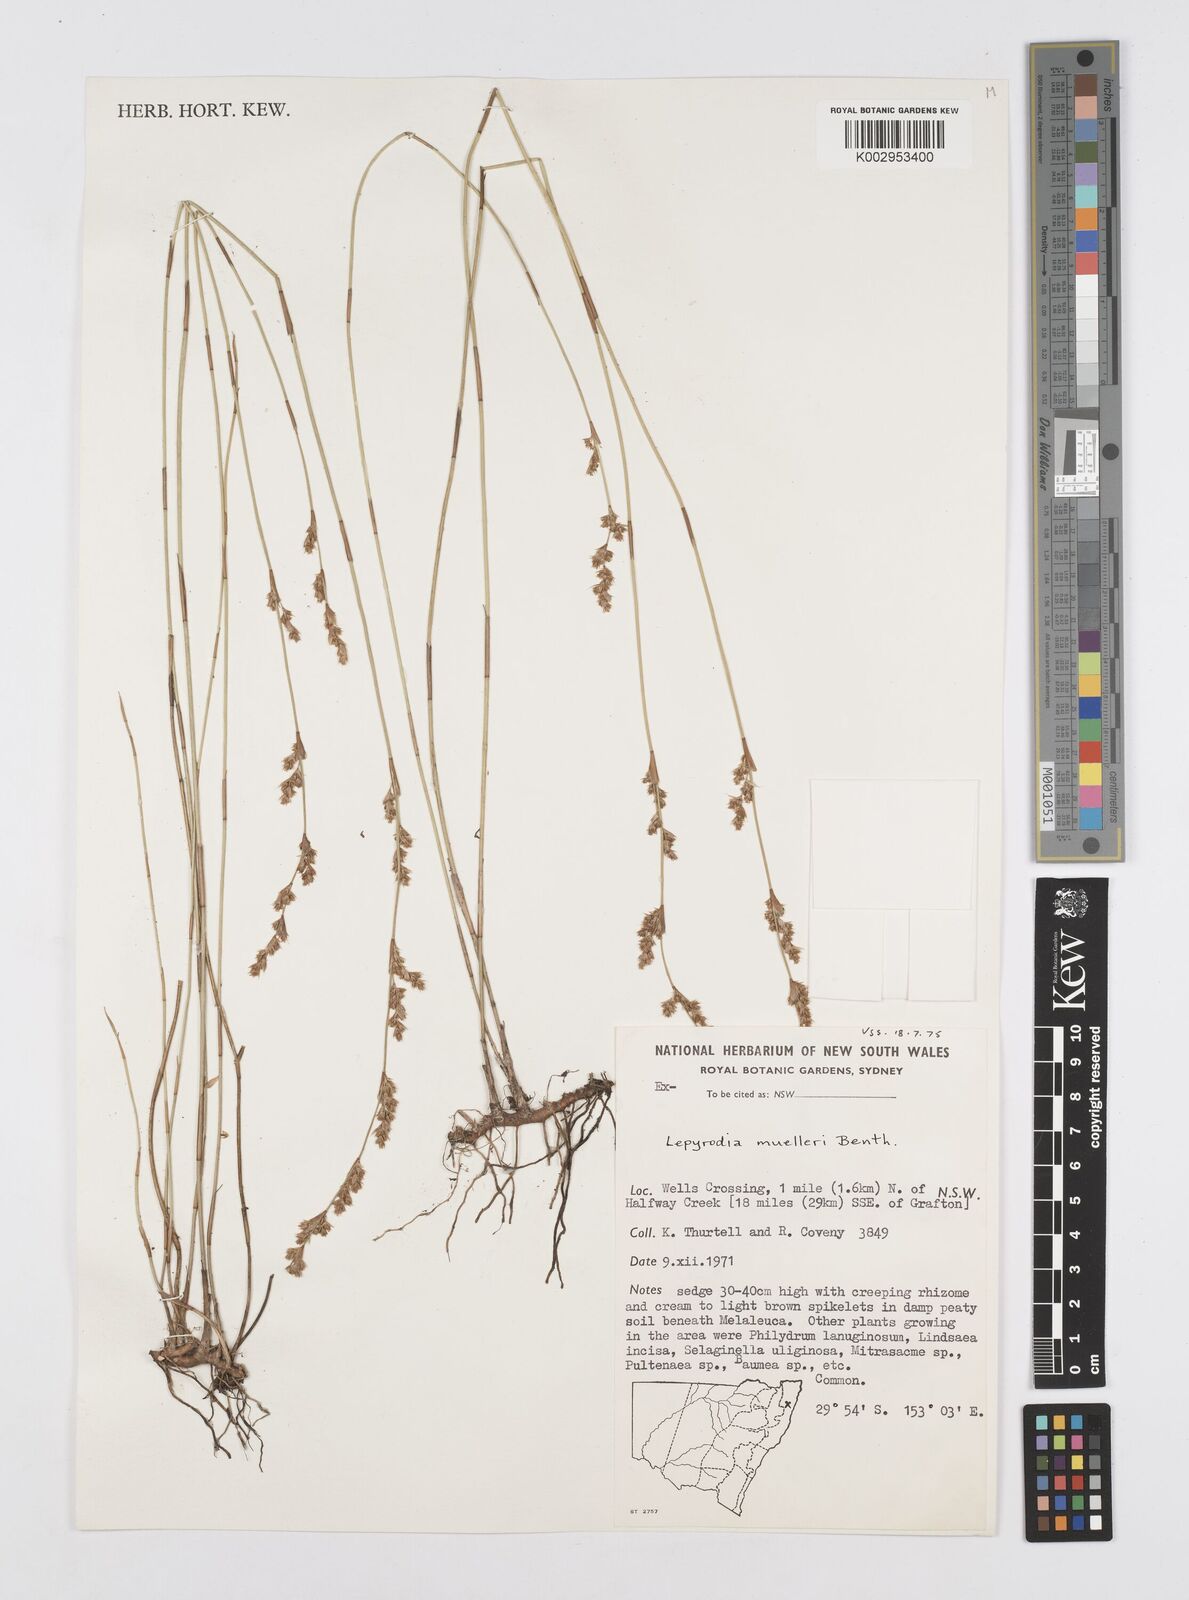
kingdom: Plantae
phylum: Tracheophyta
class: Liliopsida
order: Poales
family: Restionaceae
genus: Lepyrodia
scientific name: Lepyrodia muelleri
